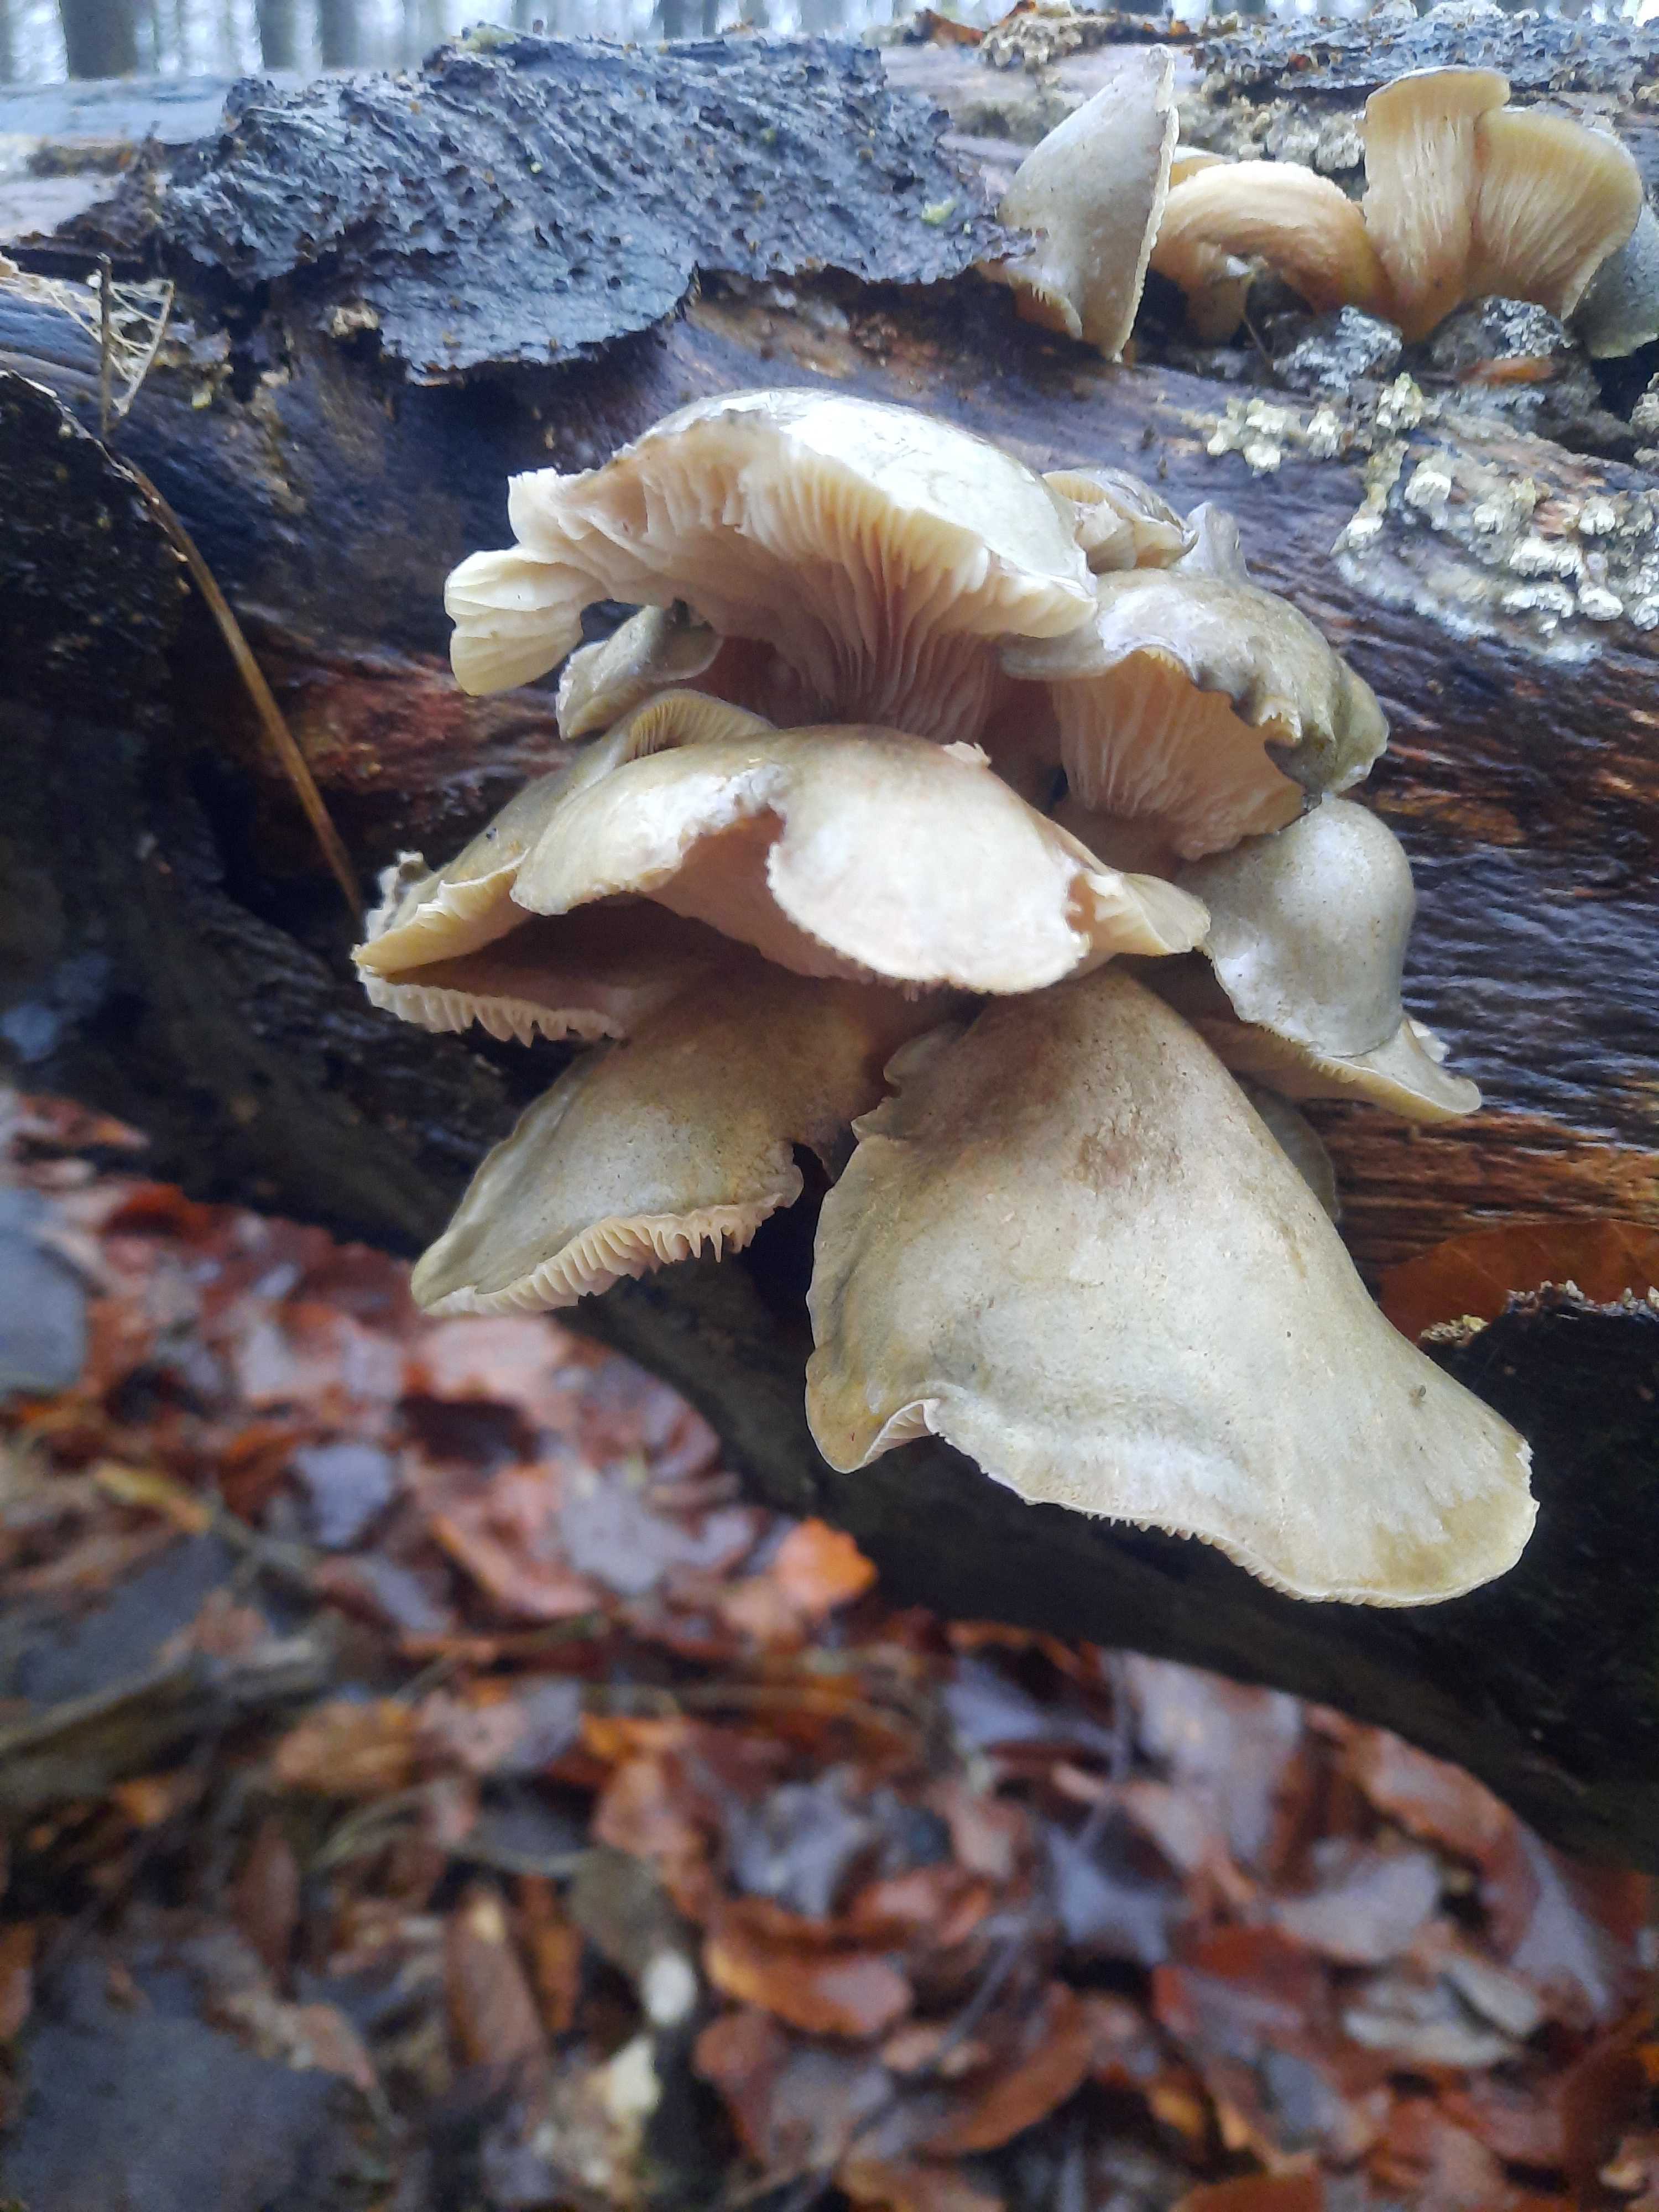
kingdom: Fungi
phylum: Basidiomycota
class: Agaricomycetes
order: Agaricales
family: Sarcomyxaceae
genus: Sarcomyxa
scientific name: Sarcomyxa serotina
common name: gummihat
